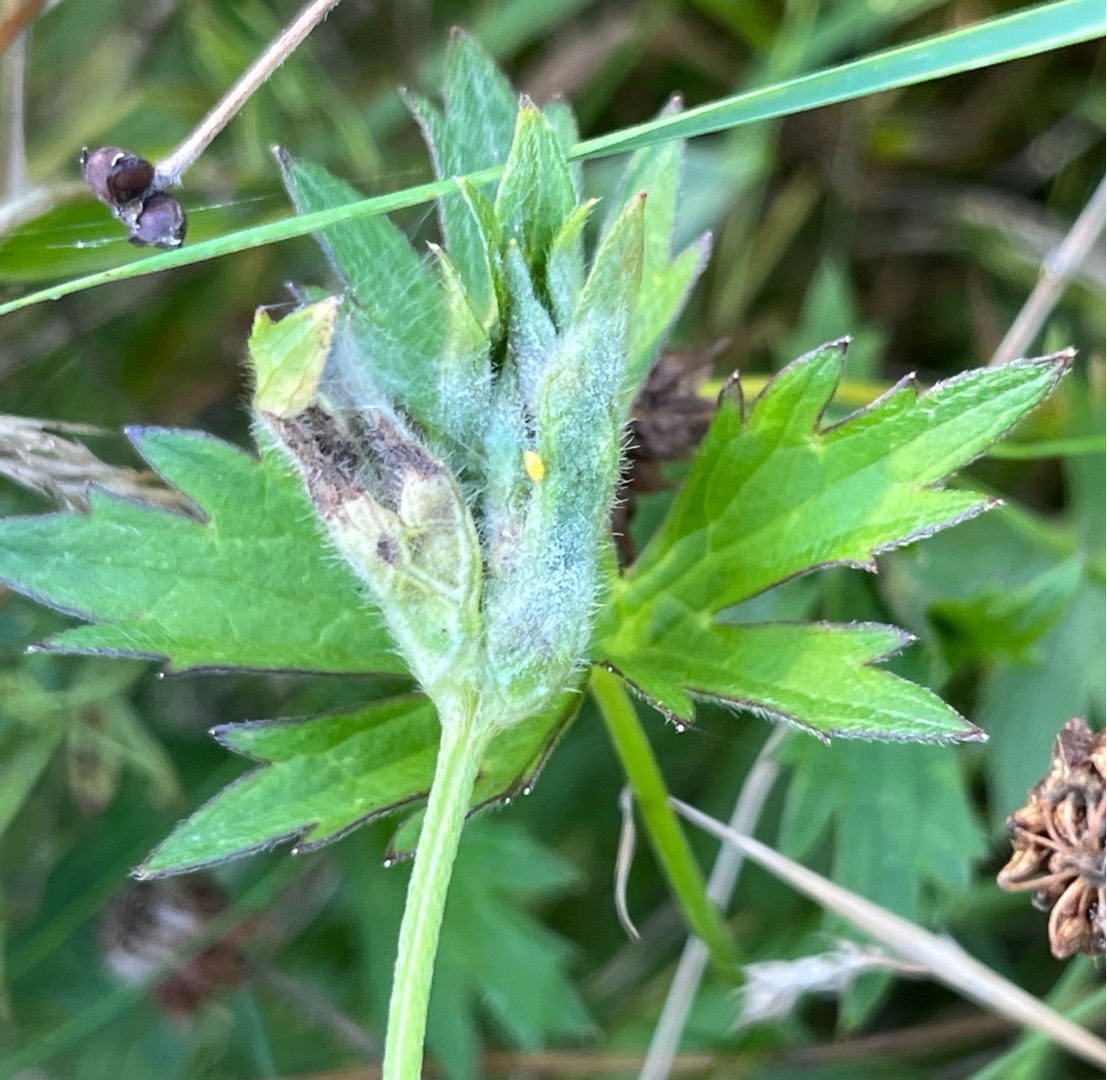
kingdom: Animalia
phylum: Arthropoda
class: Insecta
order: Diptera
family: Cecidomyiidae
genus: Dasineura
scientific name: Dasineura ranunculi
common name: Ranunkelbladgalmyg
